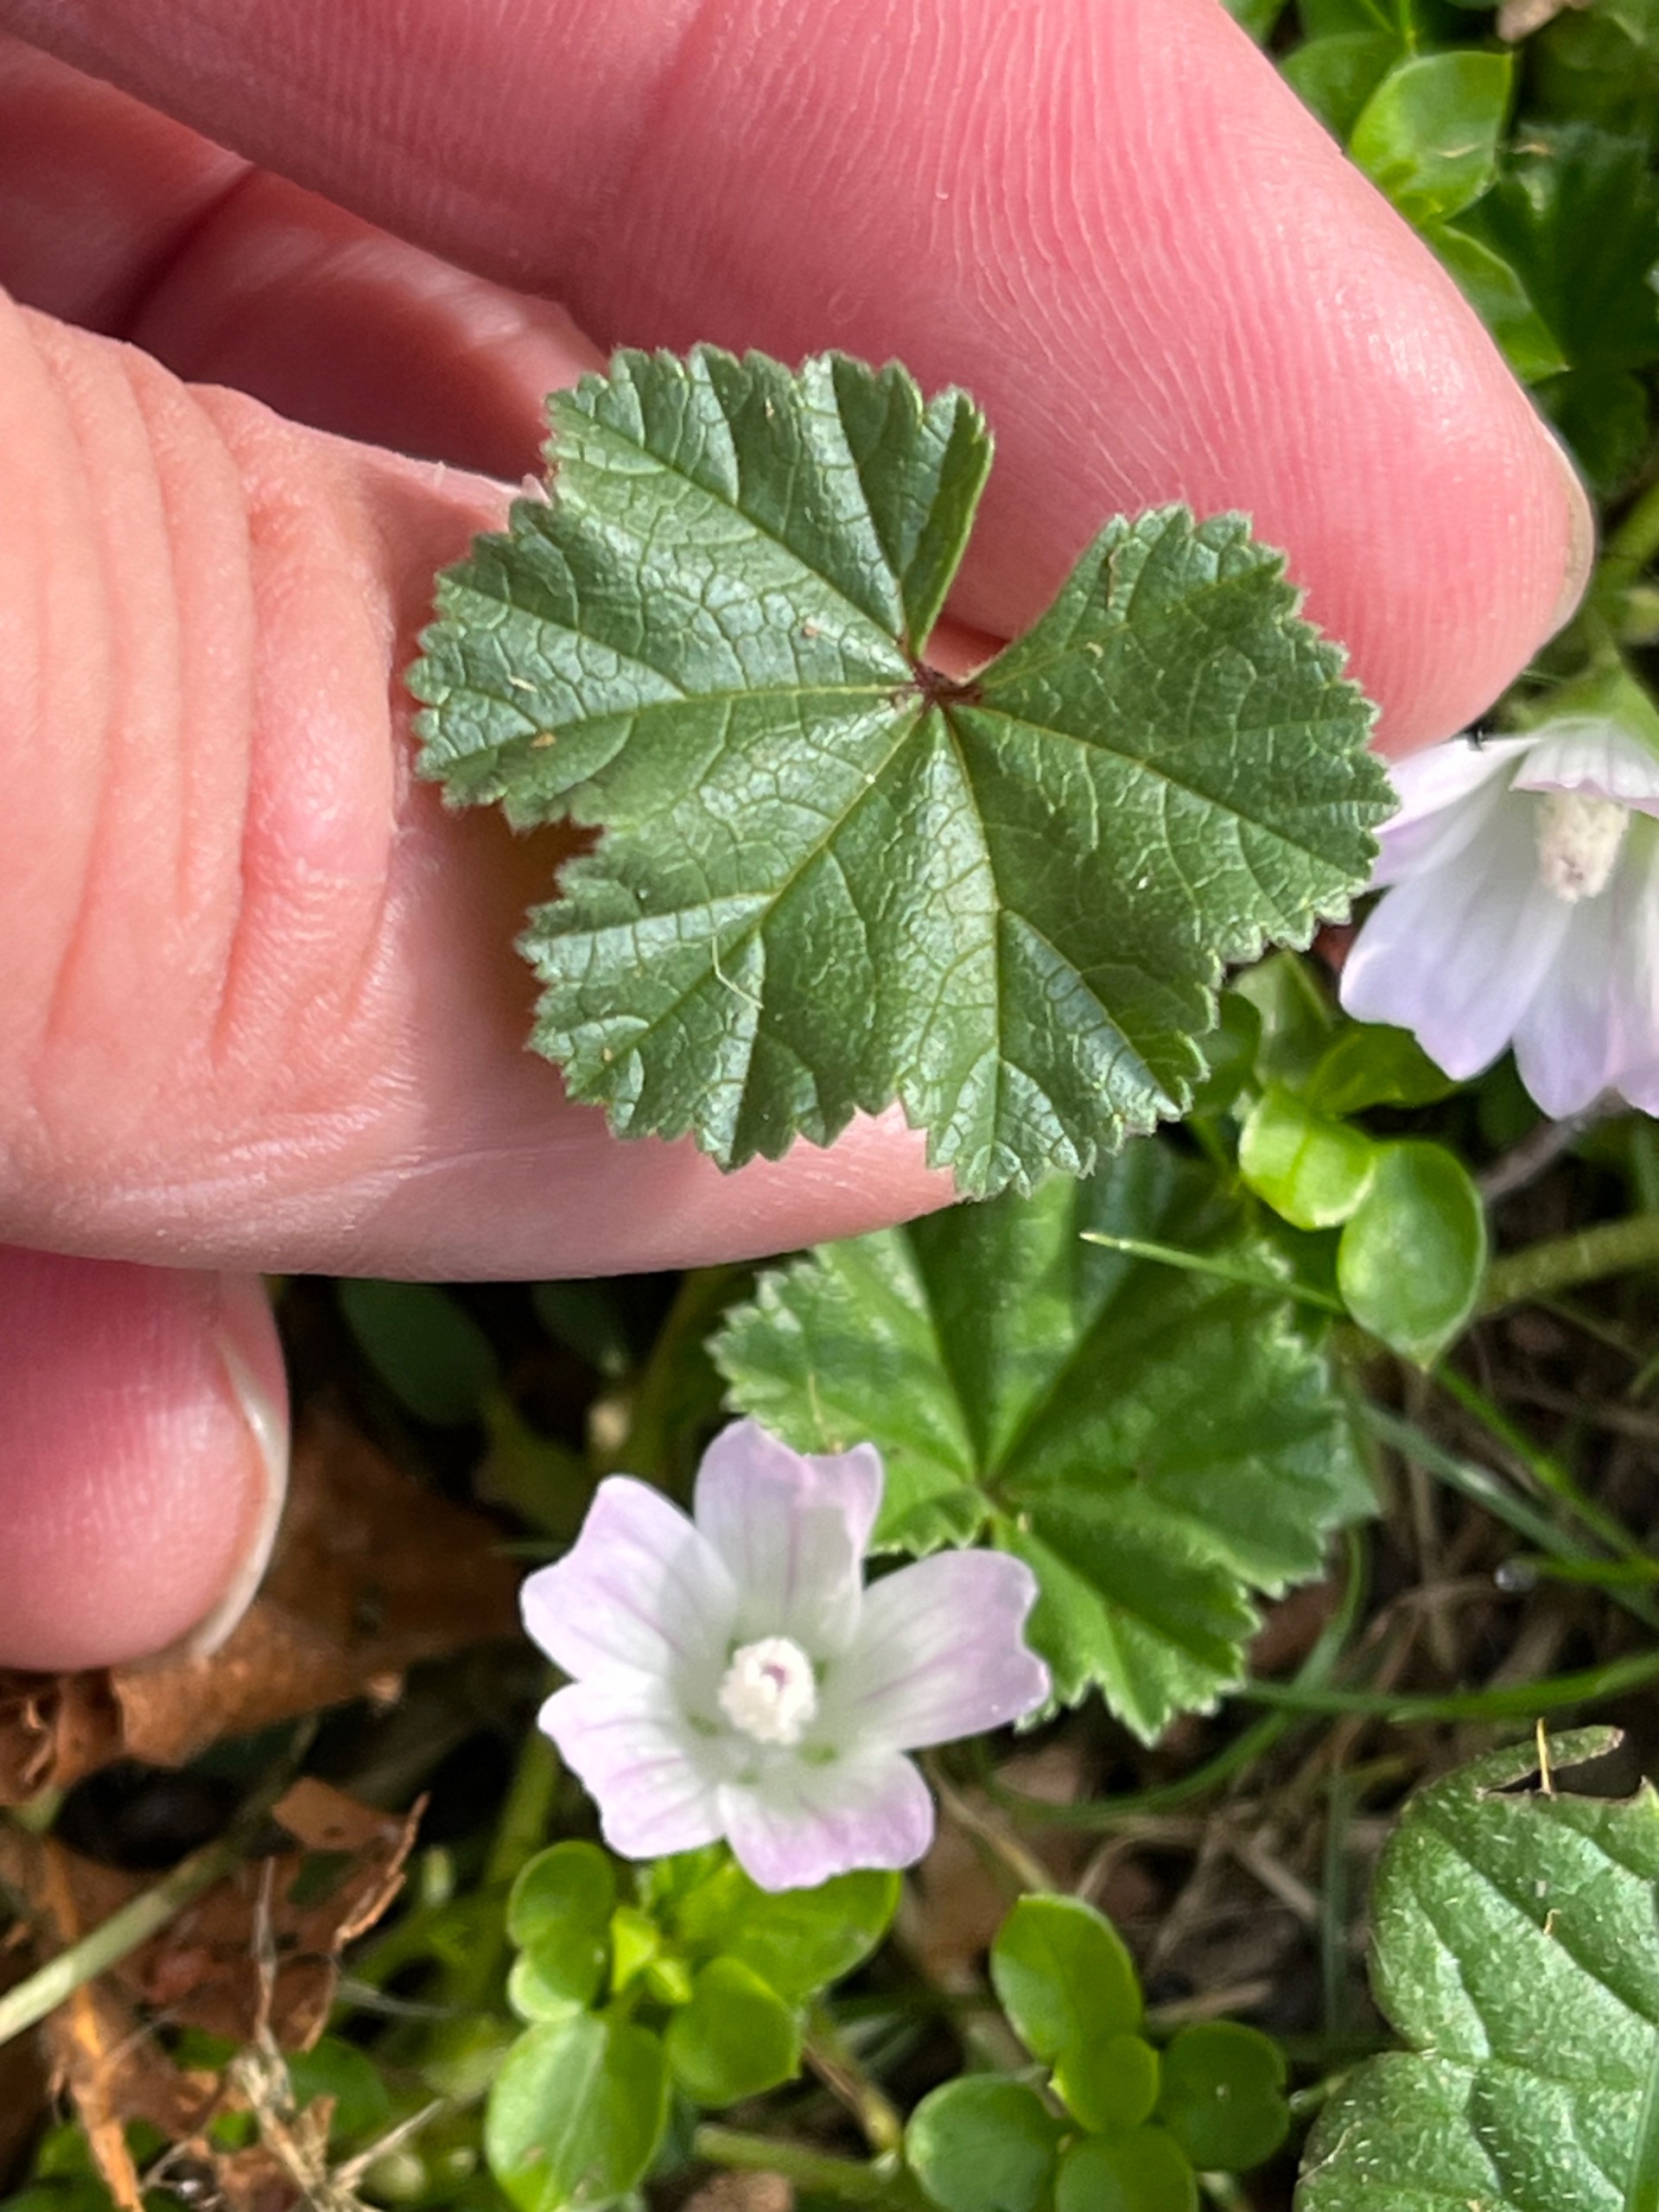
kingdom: Plantae
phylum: Tracheophyta
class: Magnoliopsida
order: Malvales
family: Malvaceae
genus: Malva
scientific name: Malva neglecta
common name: Rundbladet katost
